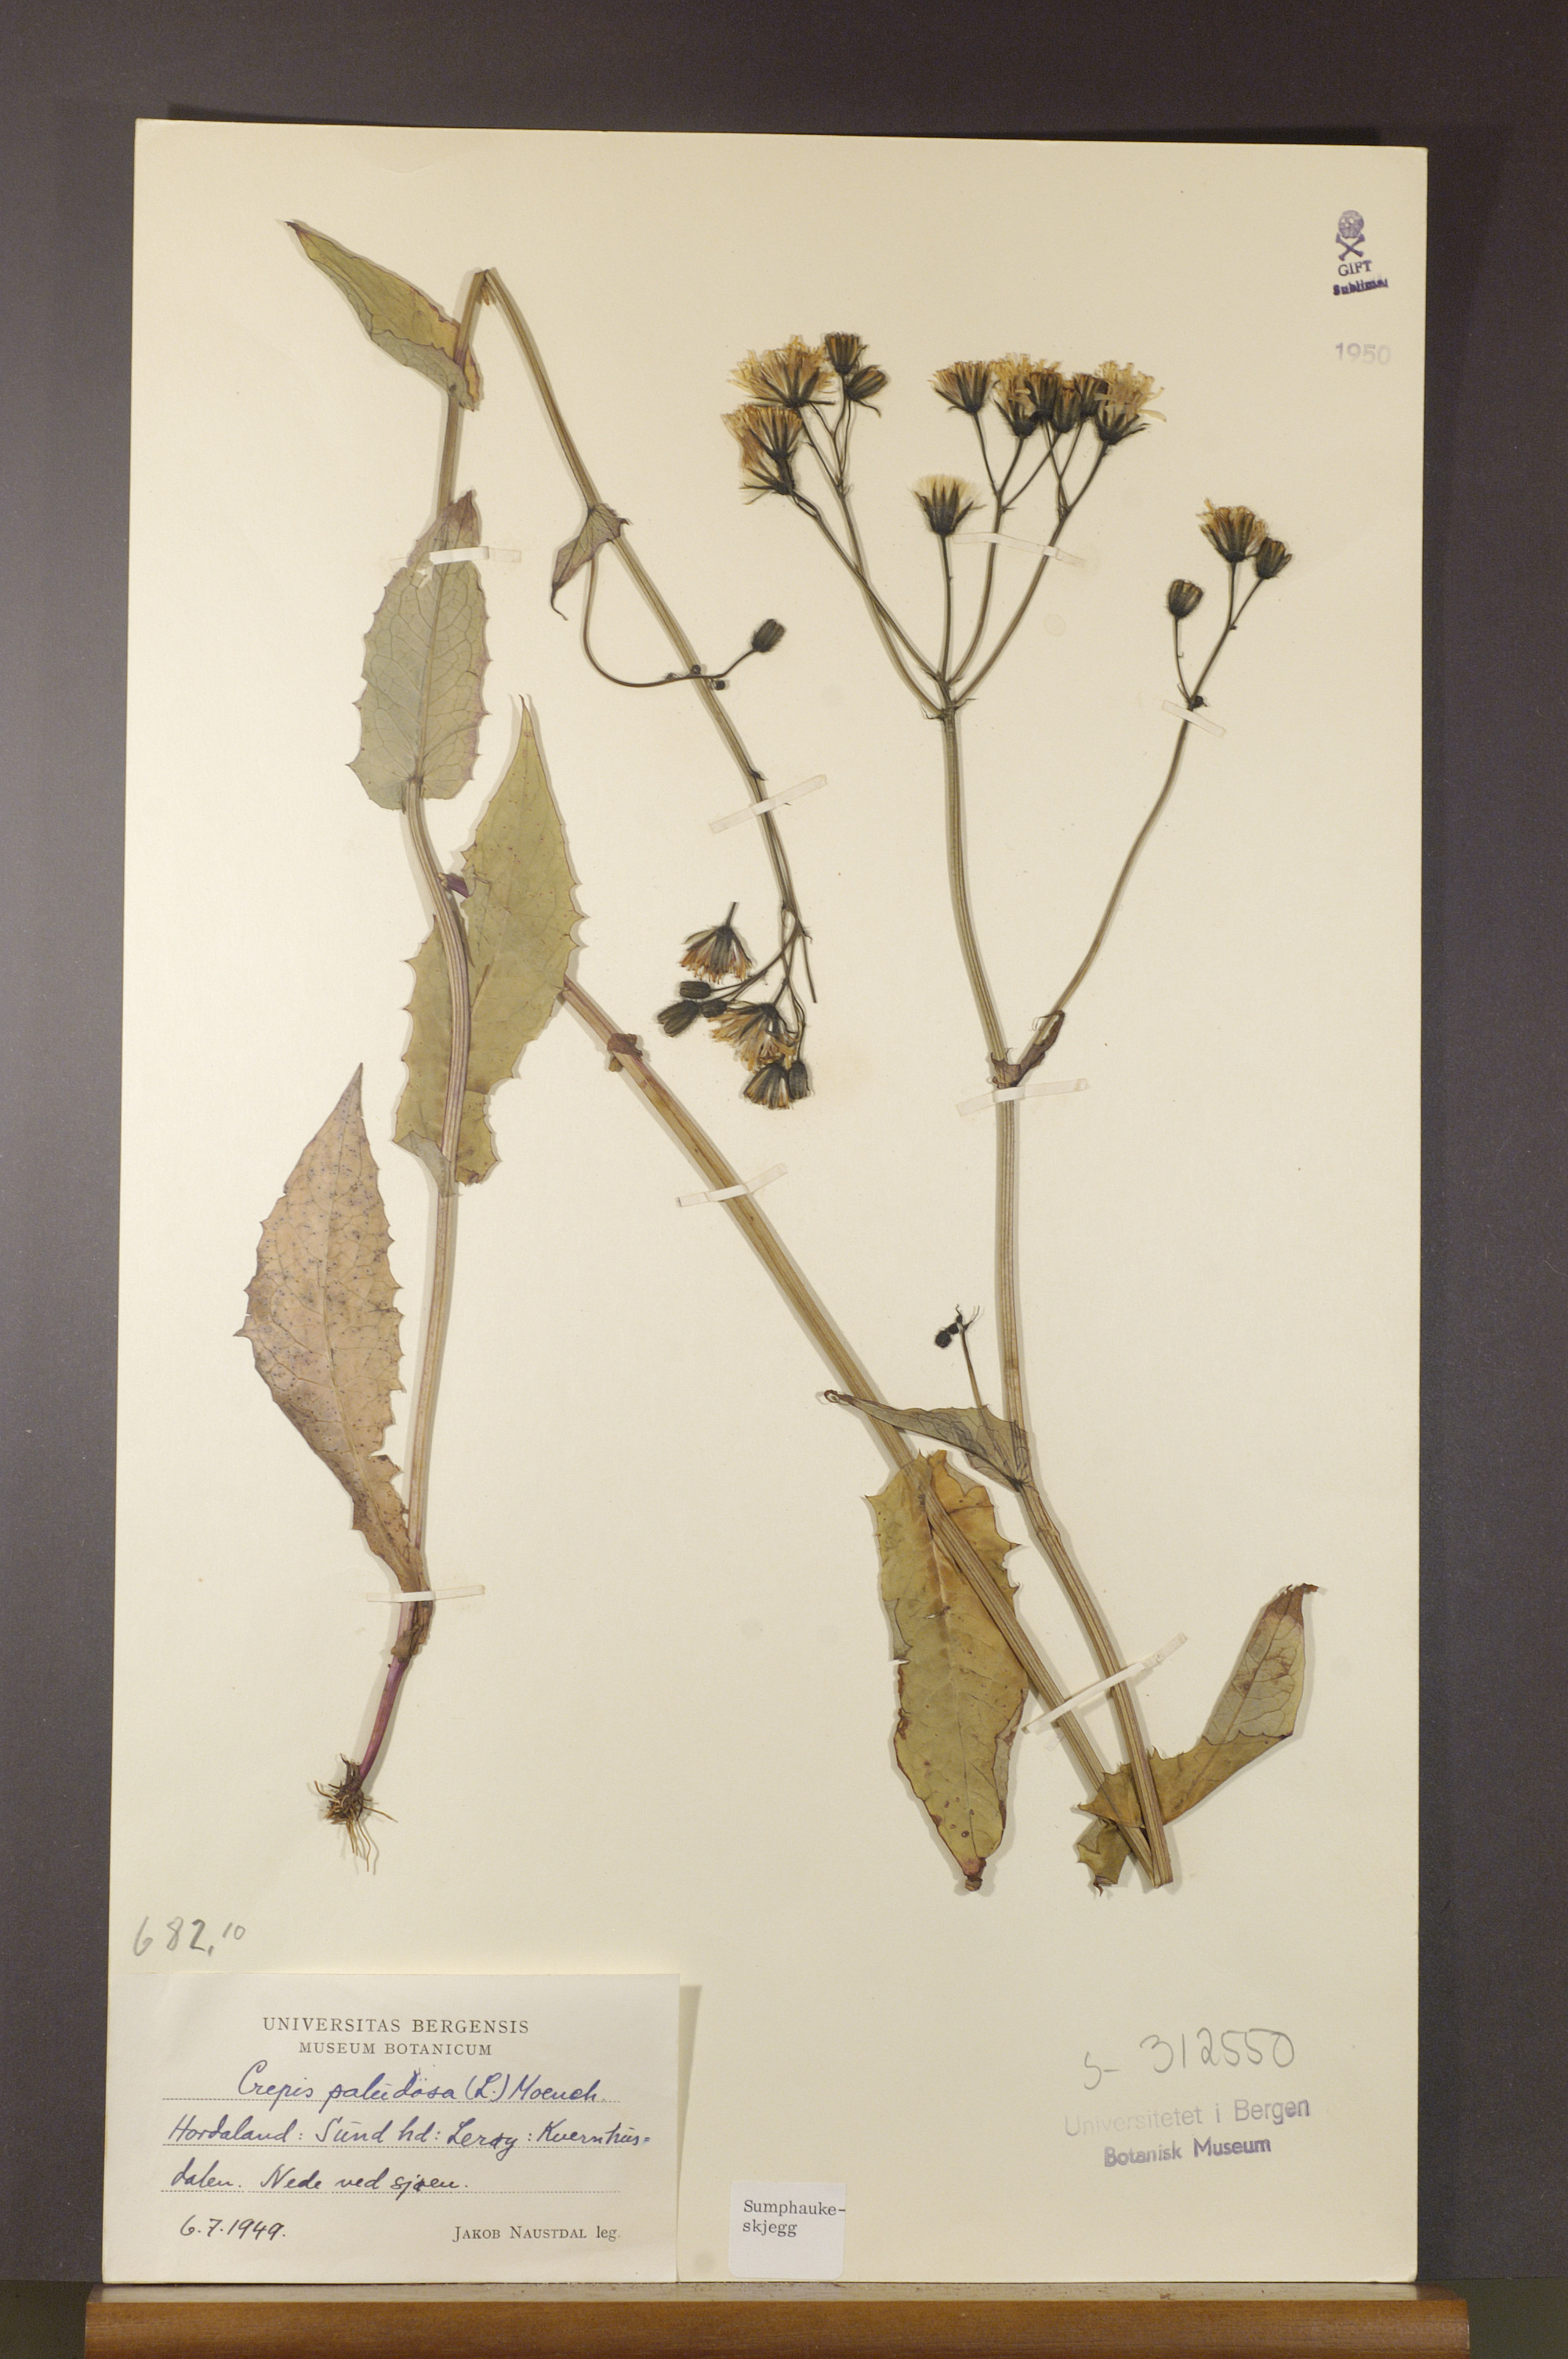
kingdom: Plantae
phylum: Tracheophyta
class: Magnoliopsida
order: Asterales
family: Asteraceae
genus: Crepis
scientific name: Crepis paludosa
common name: Marsh hawk's-beard
